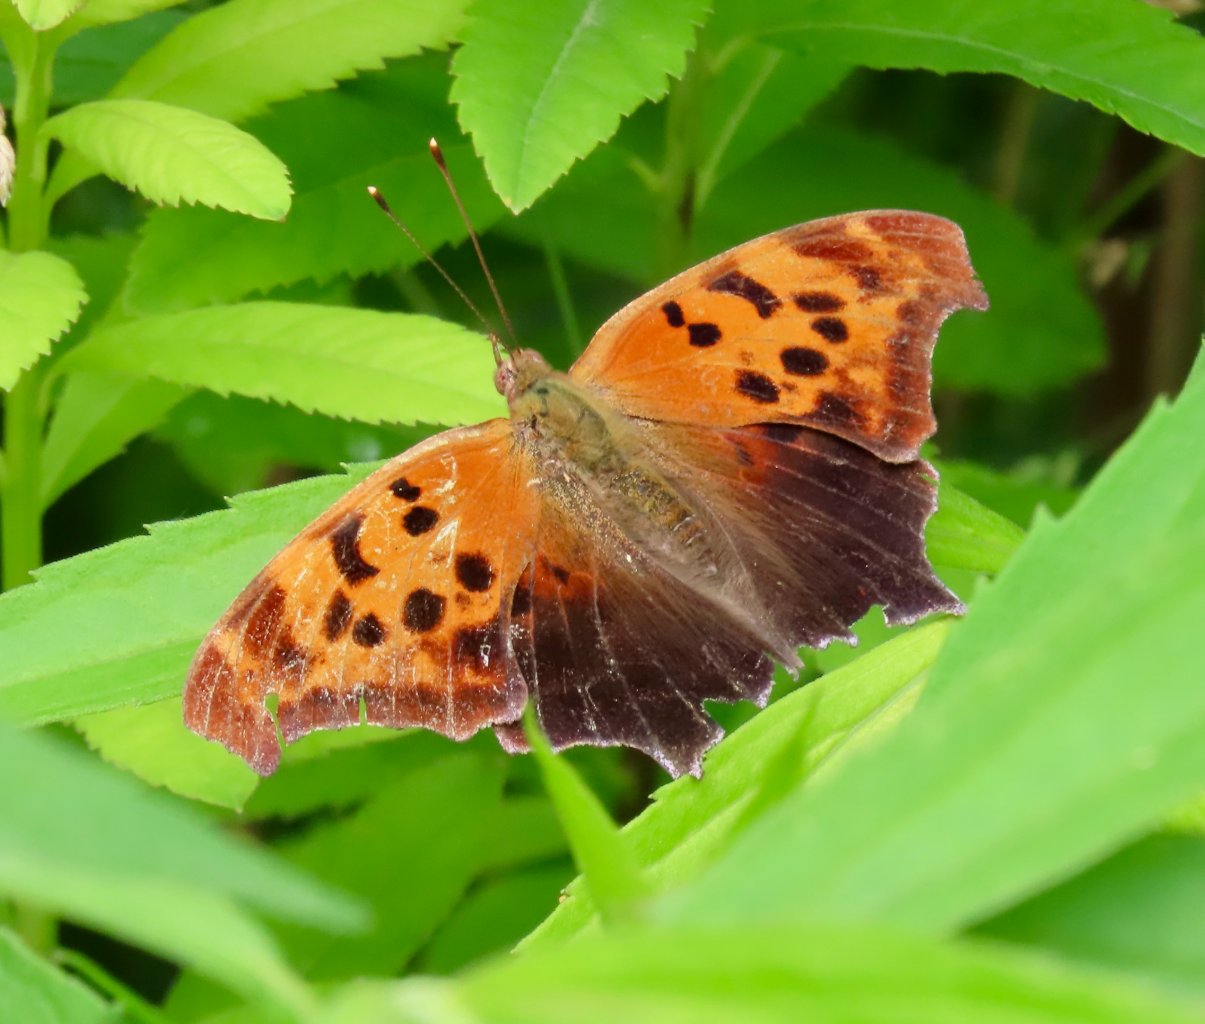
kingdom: Animalia
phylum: Arthropoda
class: Insecta
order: Lepidoptera
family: Nymphalidae
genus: Polygonia
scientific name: Polygonia interrogationis
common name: Question Mark
